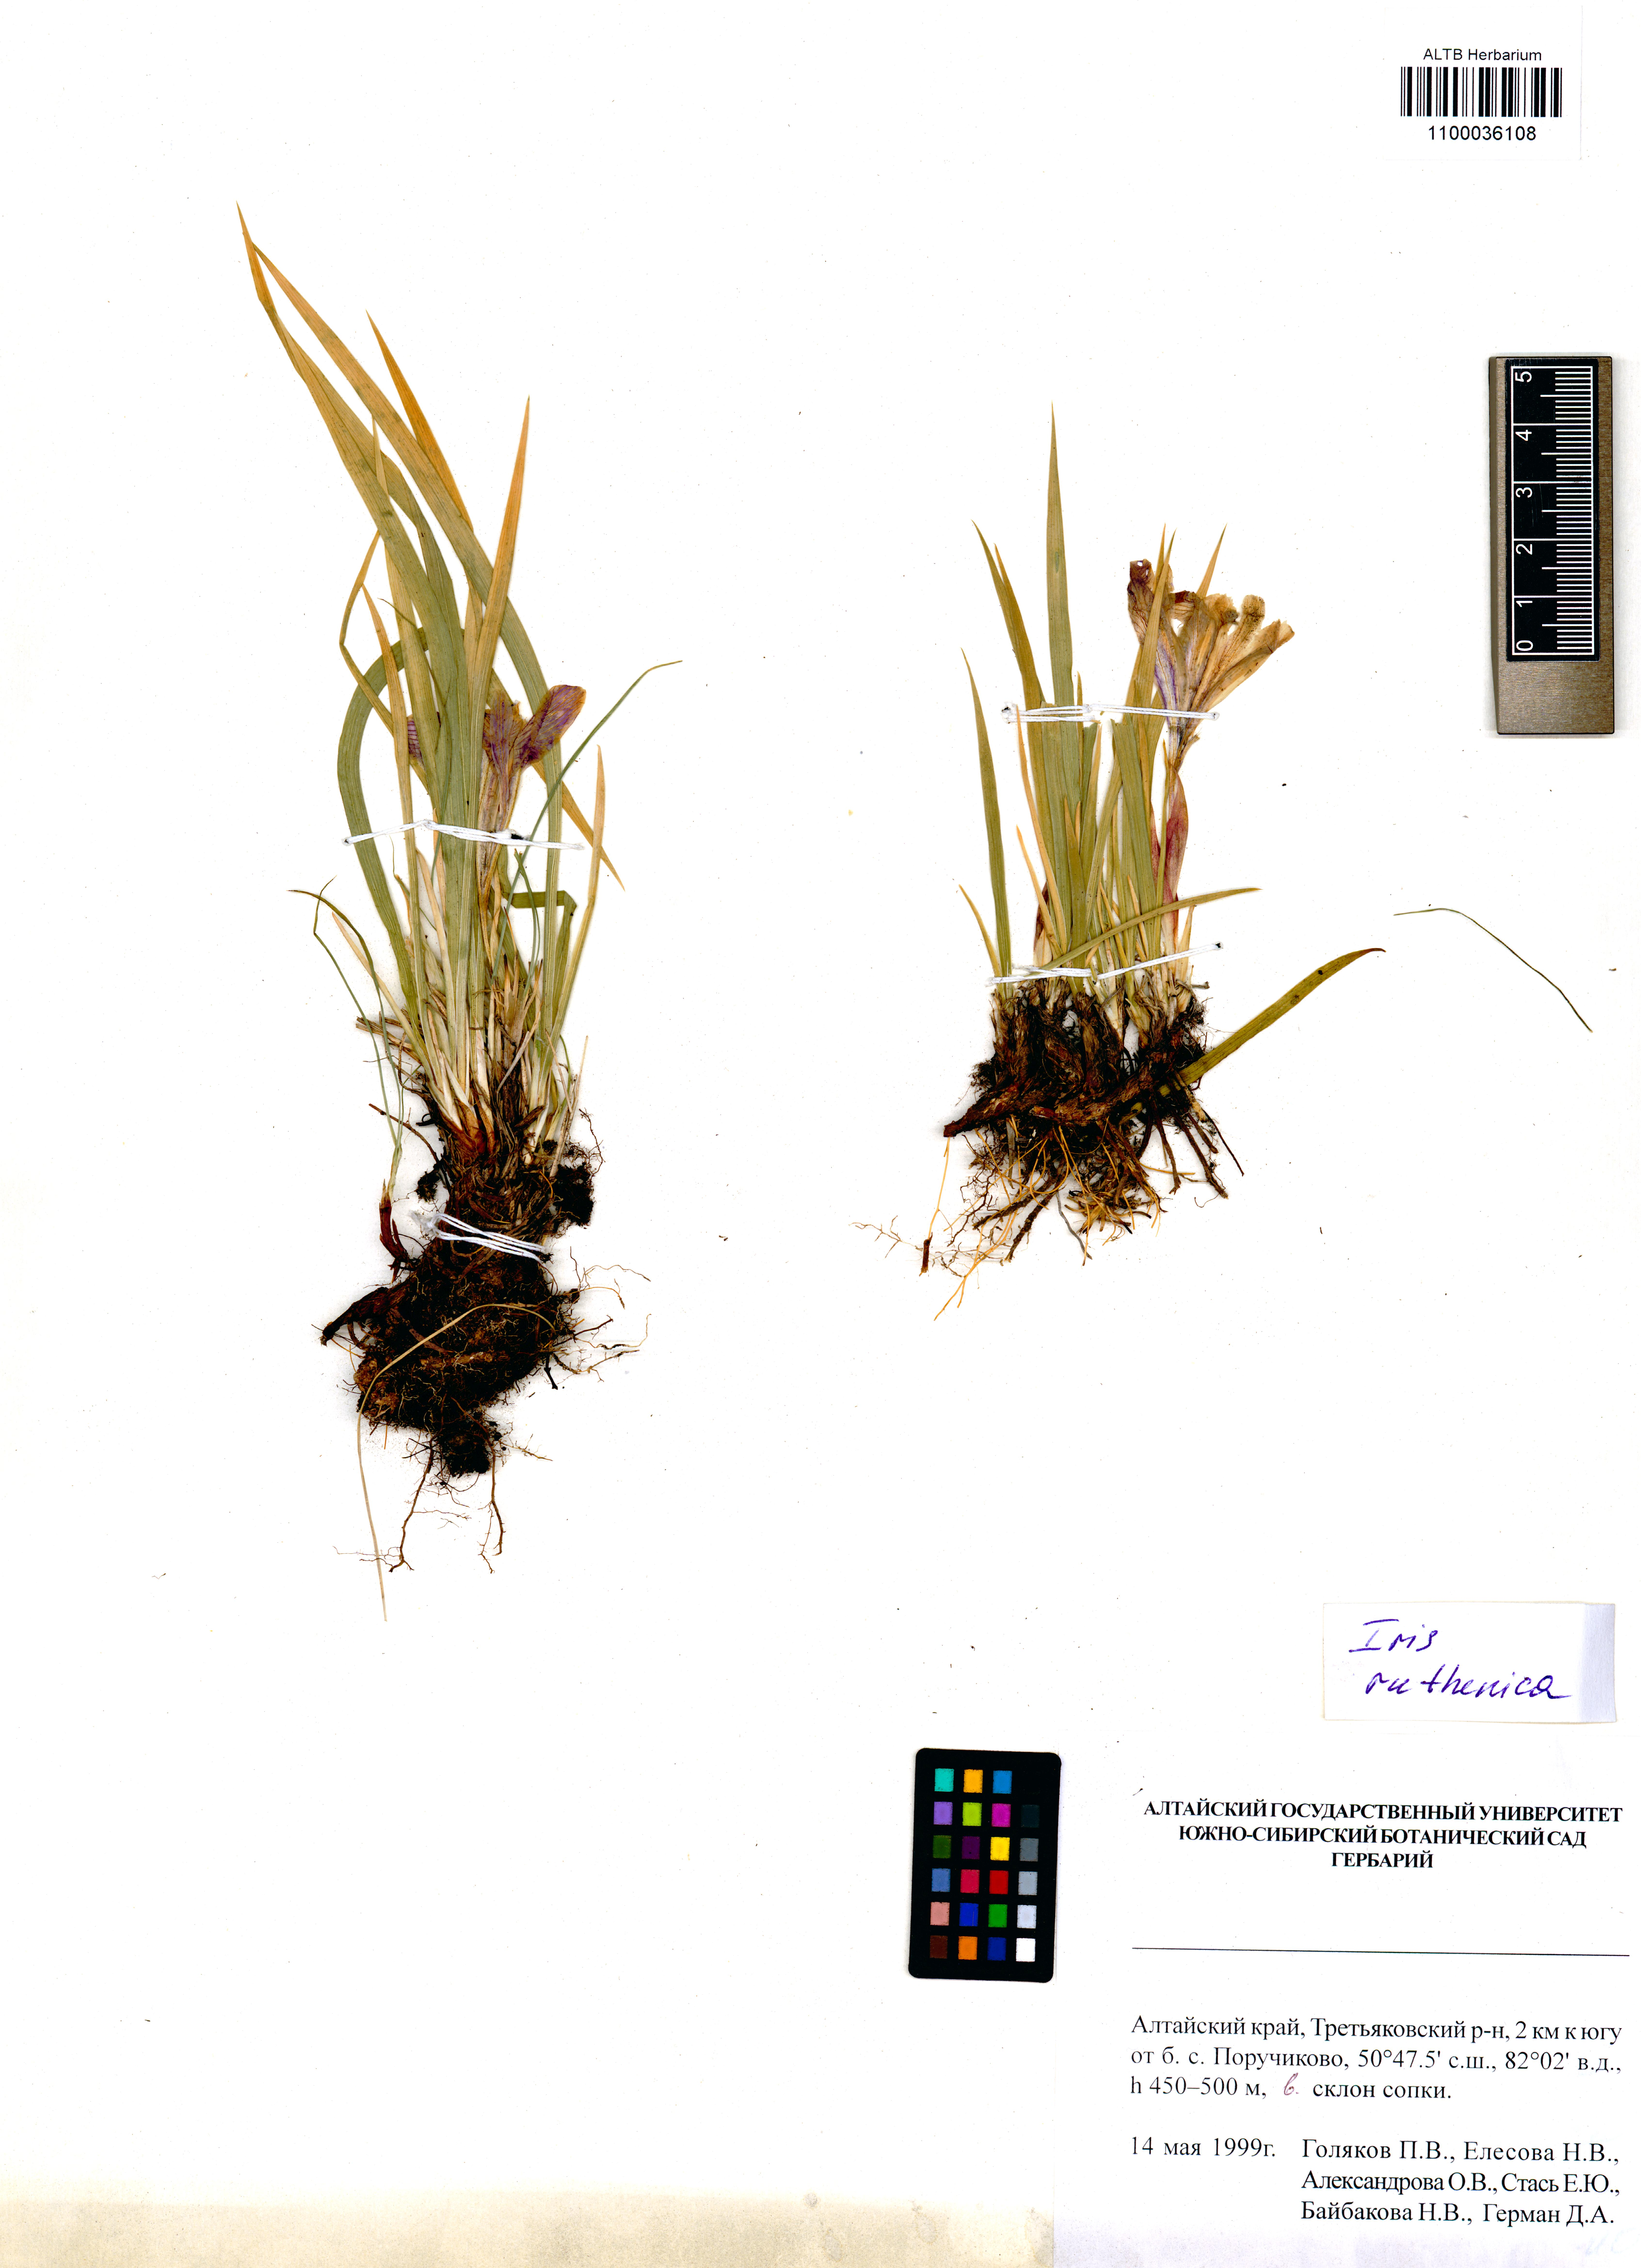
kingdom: Plantae
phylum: Tracheophyta
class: Liliopsida
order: Asparagales
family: Iridaceae
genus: Iris
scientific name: Iris ruthenica
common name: Purple-bract iris
